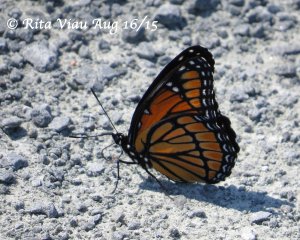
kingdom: Animalia
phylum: Arthropoda
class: Insecta
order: Lepidoptera
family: Nymphalidae
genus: Limenitis
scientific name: Limenitis archippus
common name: Viceroy
